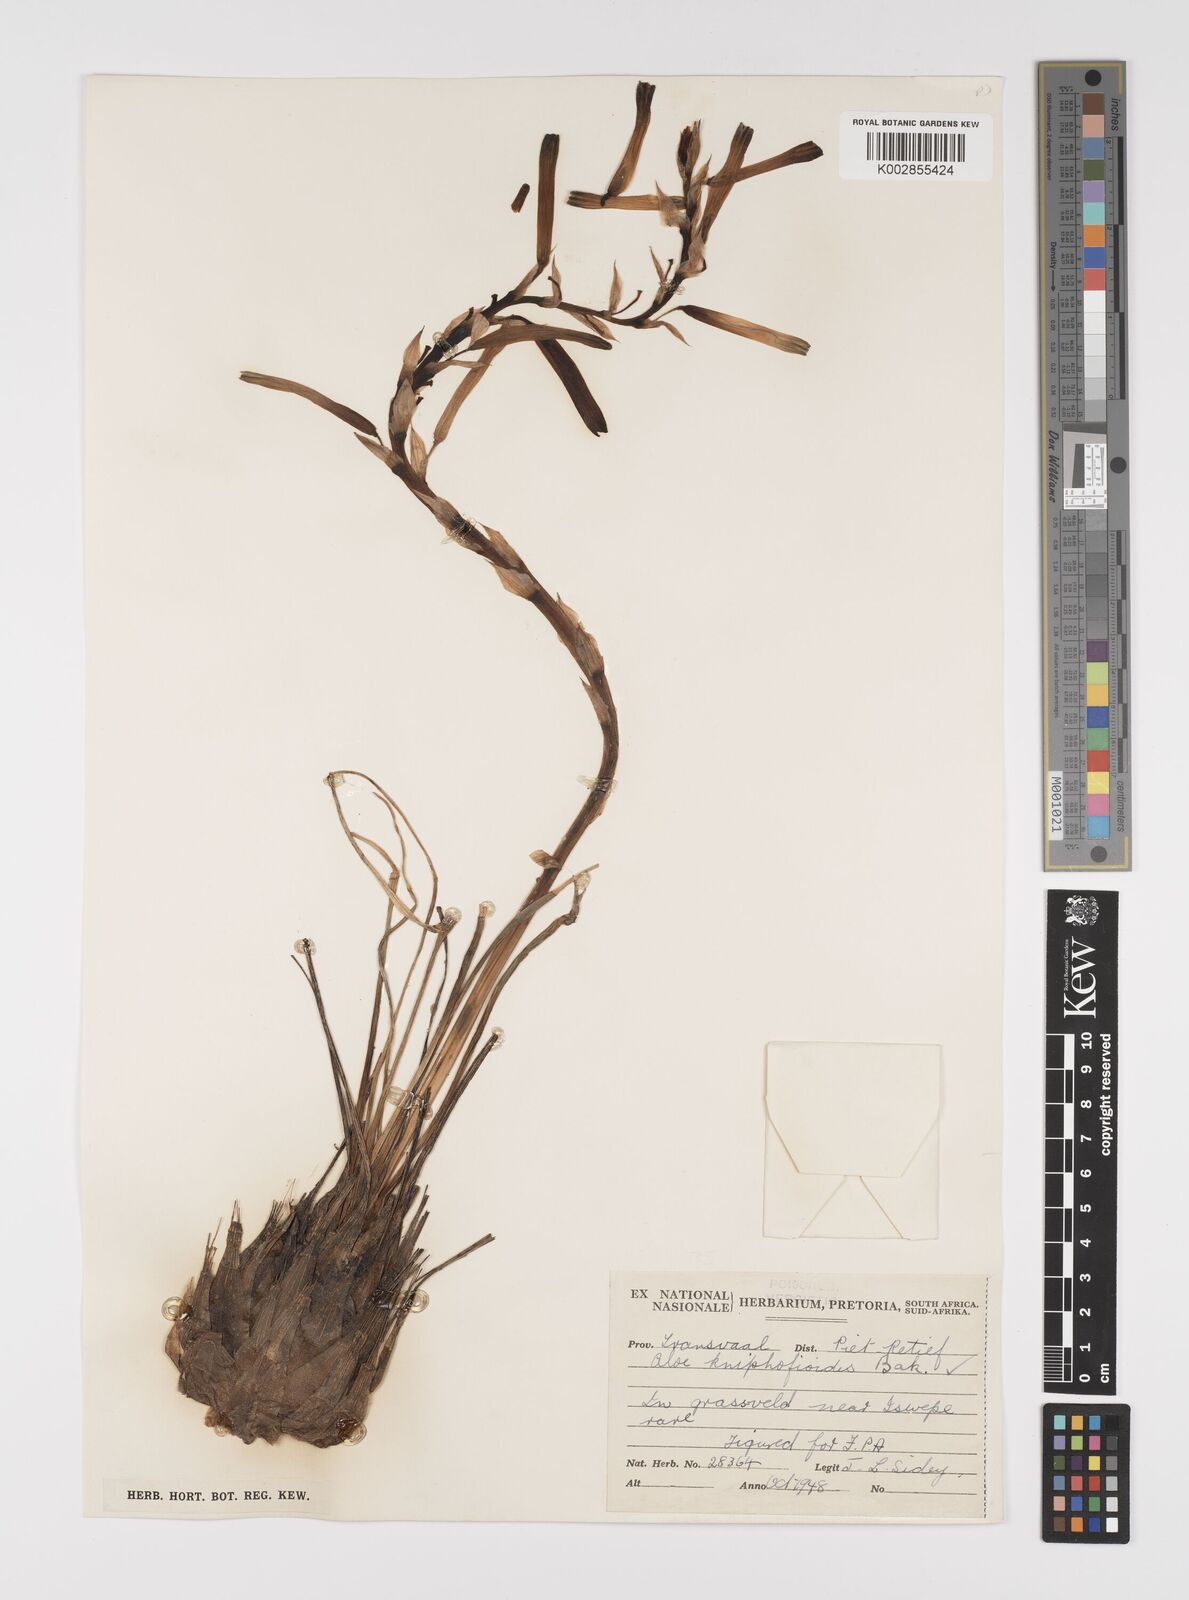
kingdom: Plantae
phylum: Tracheophyta
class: Liliopsida
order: Asparagales
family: Asphodelaceae
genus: Aloe
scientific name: Aloe kniphofioides
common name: Grass aloe
